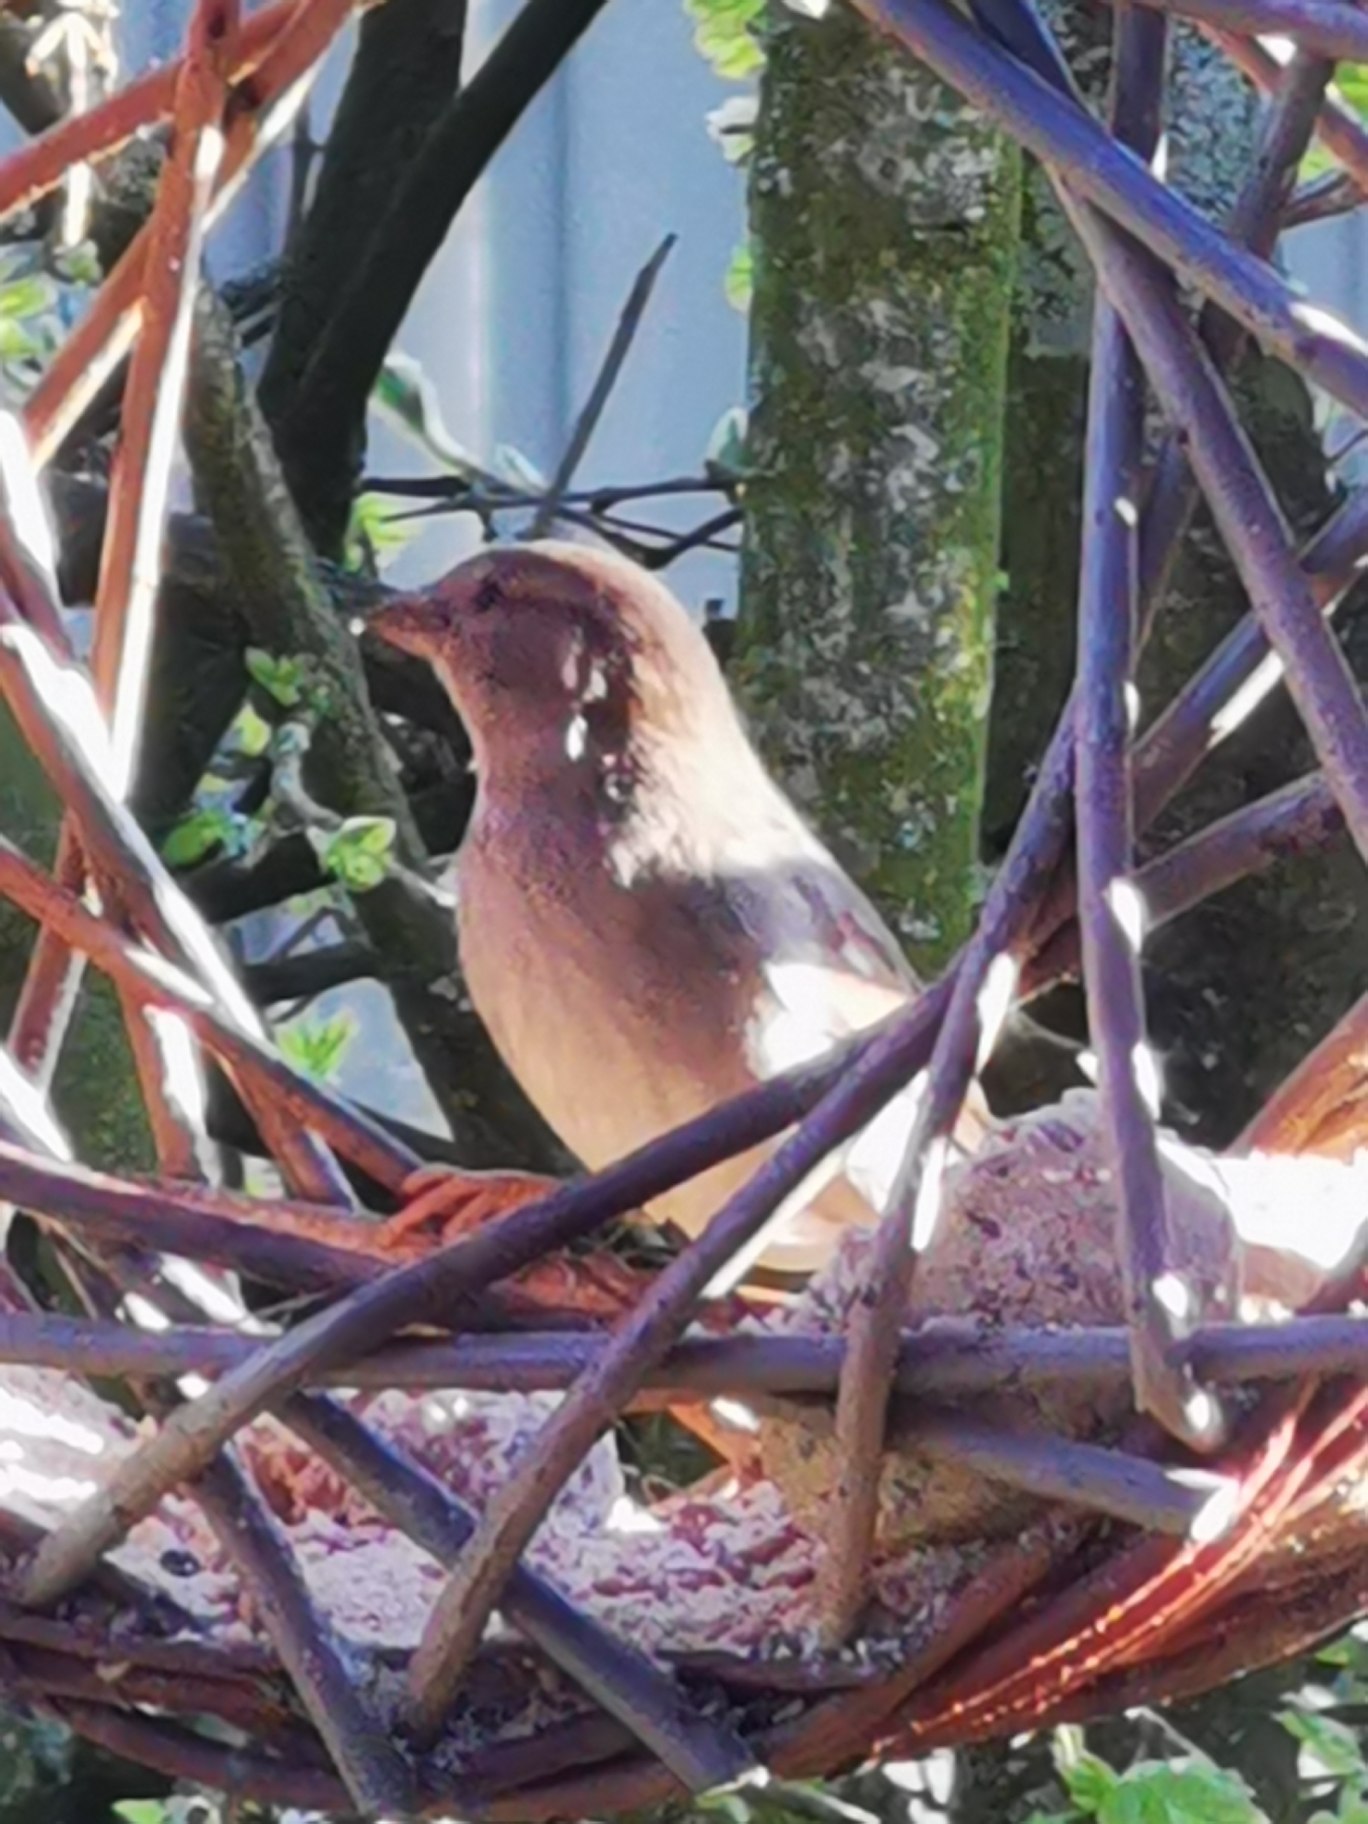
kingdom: Animalia
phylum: Chordata
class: Aves
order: Passeriformes
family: Passeridae
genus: Passer
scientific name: Passer domesticus
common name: Gråspurv
